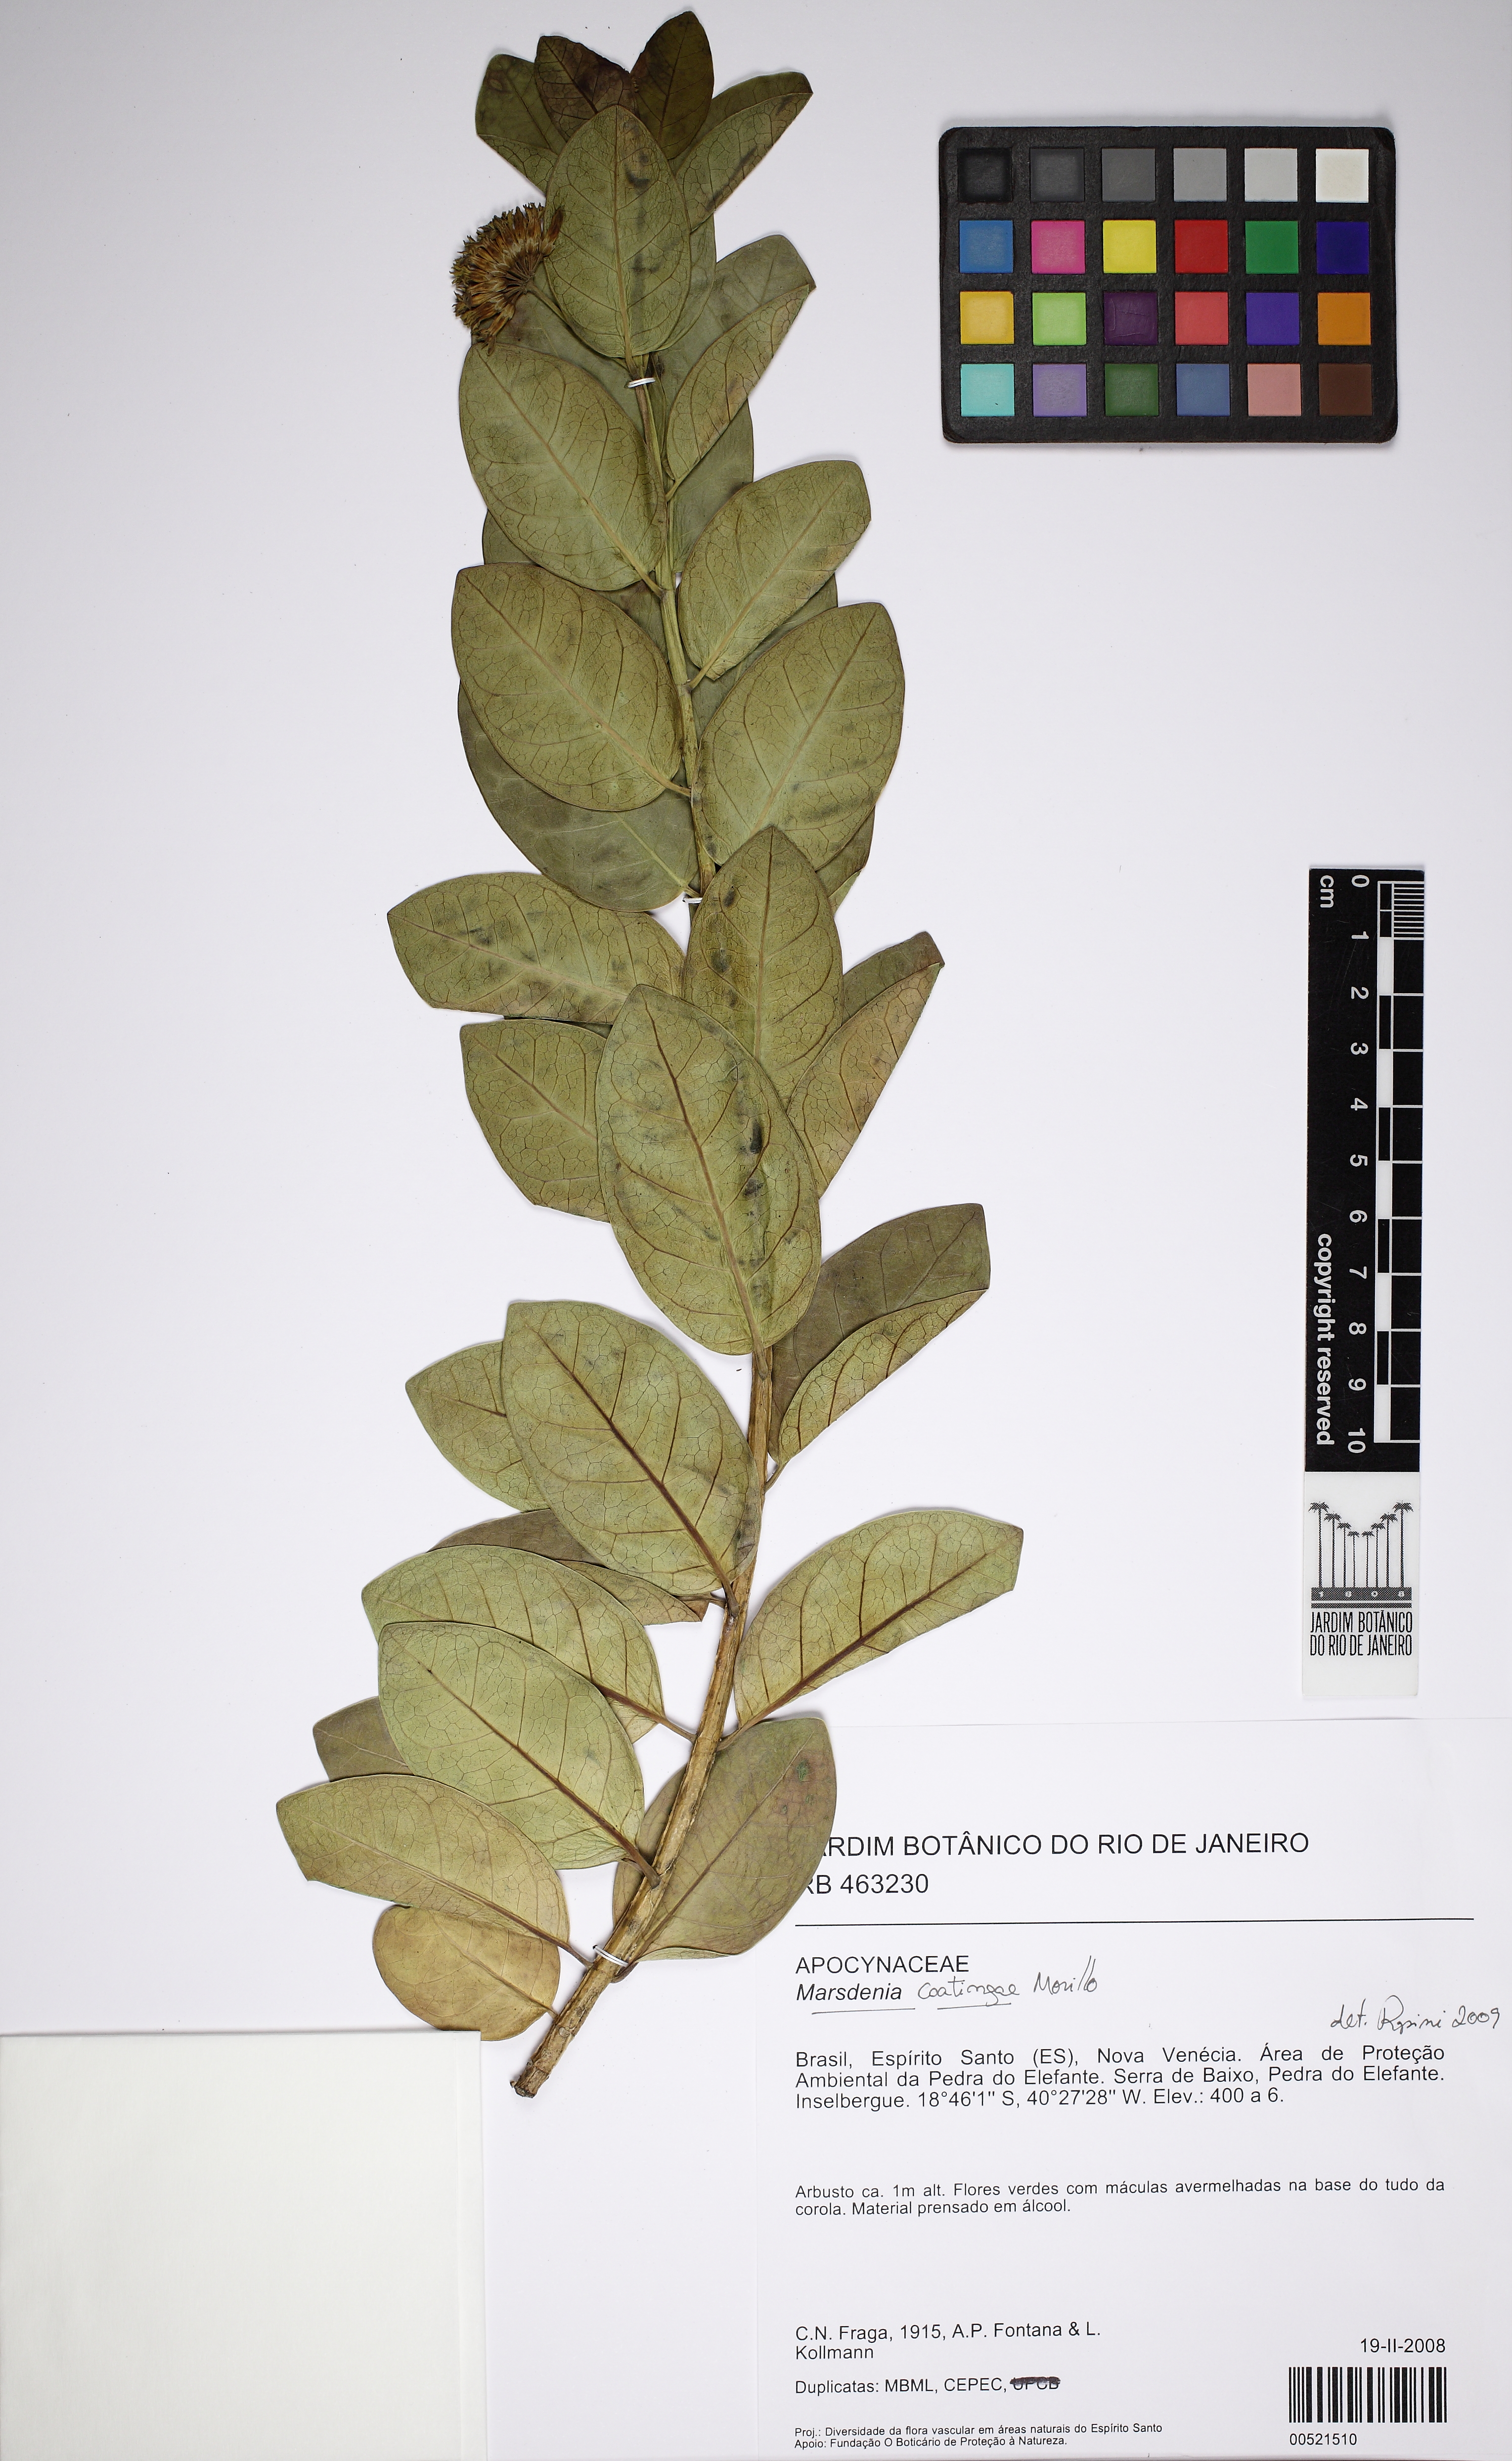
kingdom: Plantae
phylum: Tracheophyta
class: Magnoliopsida
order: Gentianales
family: Apocynaceae
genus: Ruehssia
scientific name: Ruehssia caatingae
